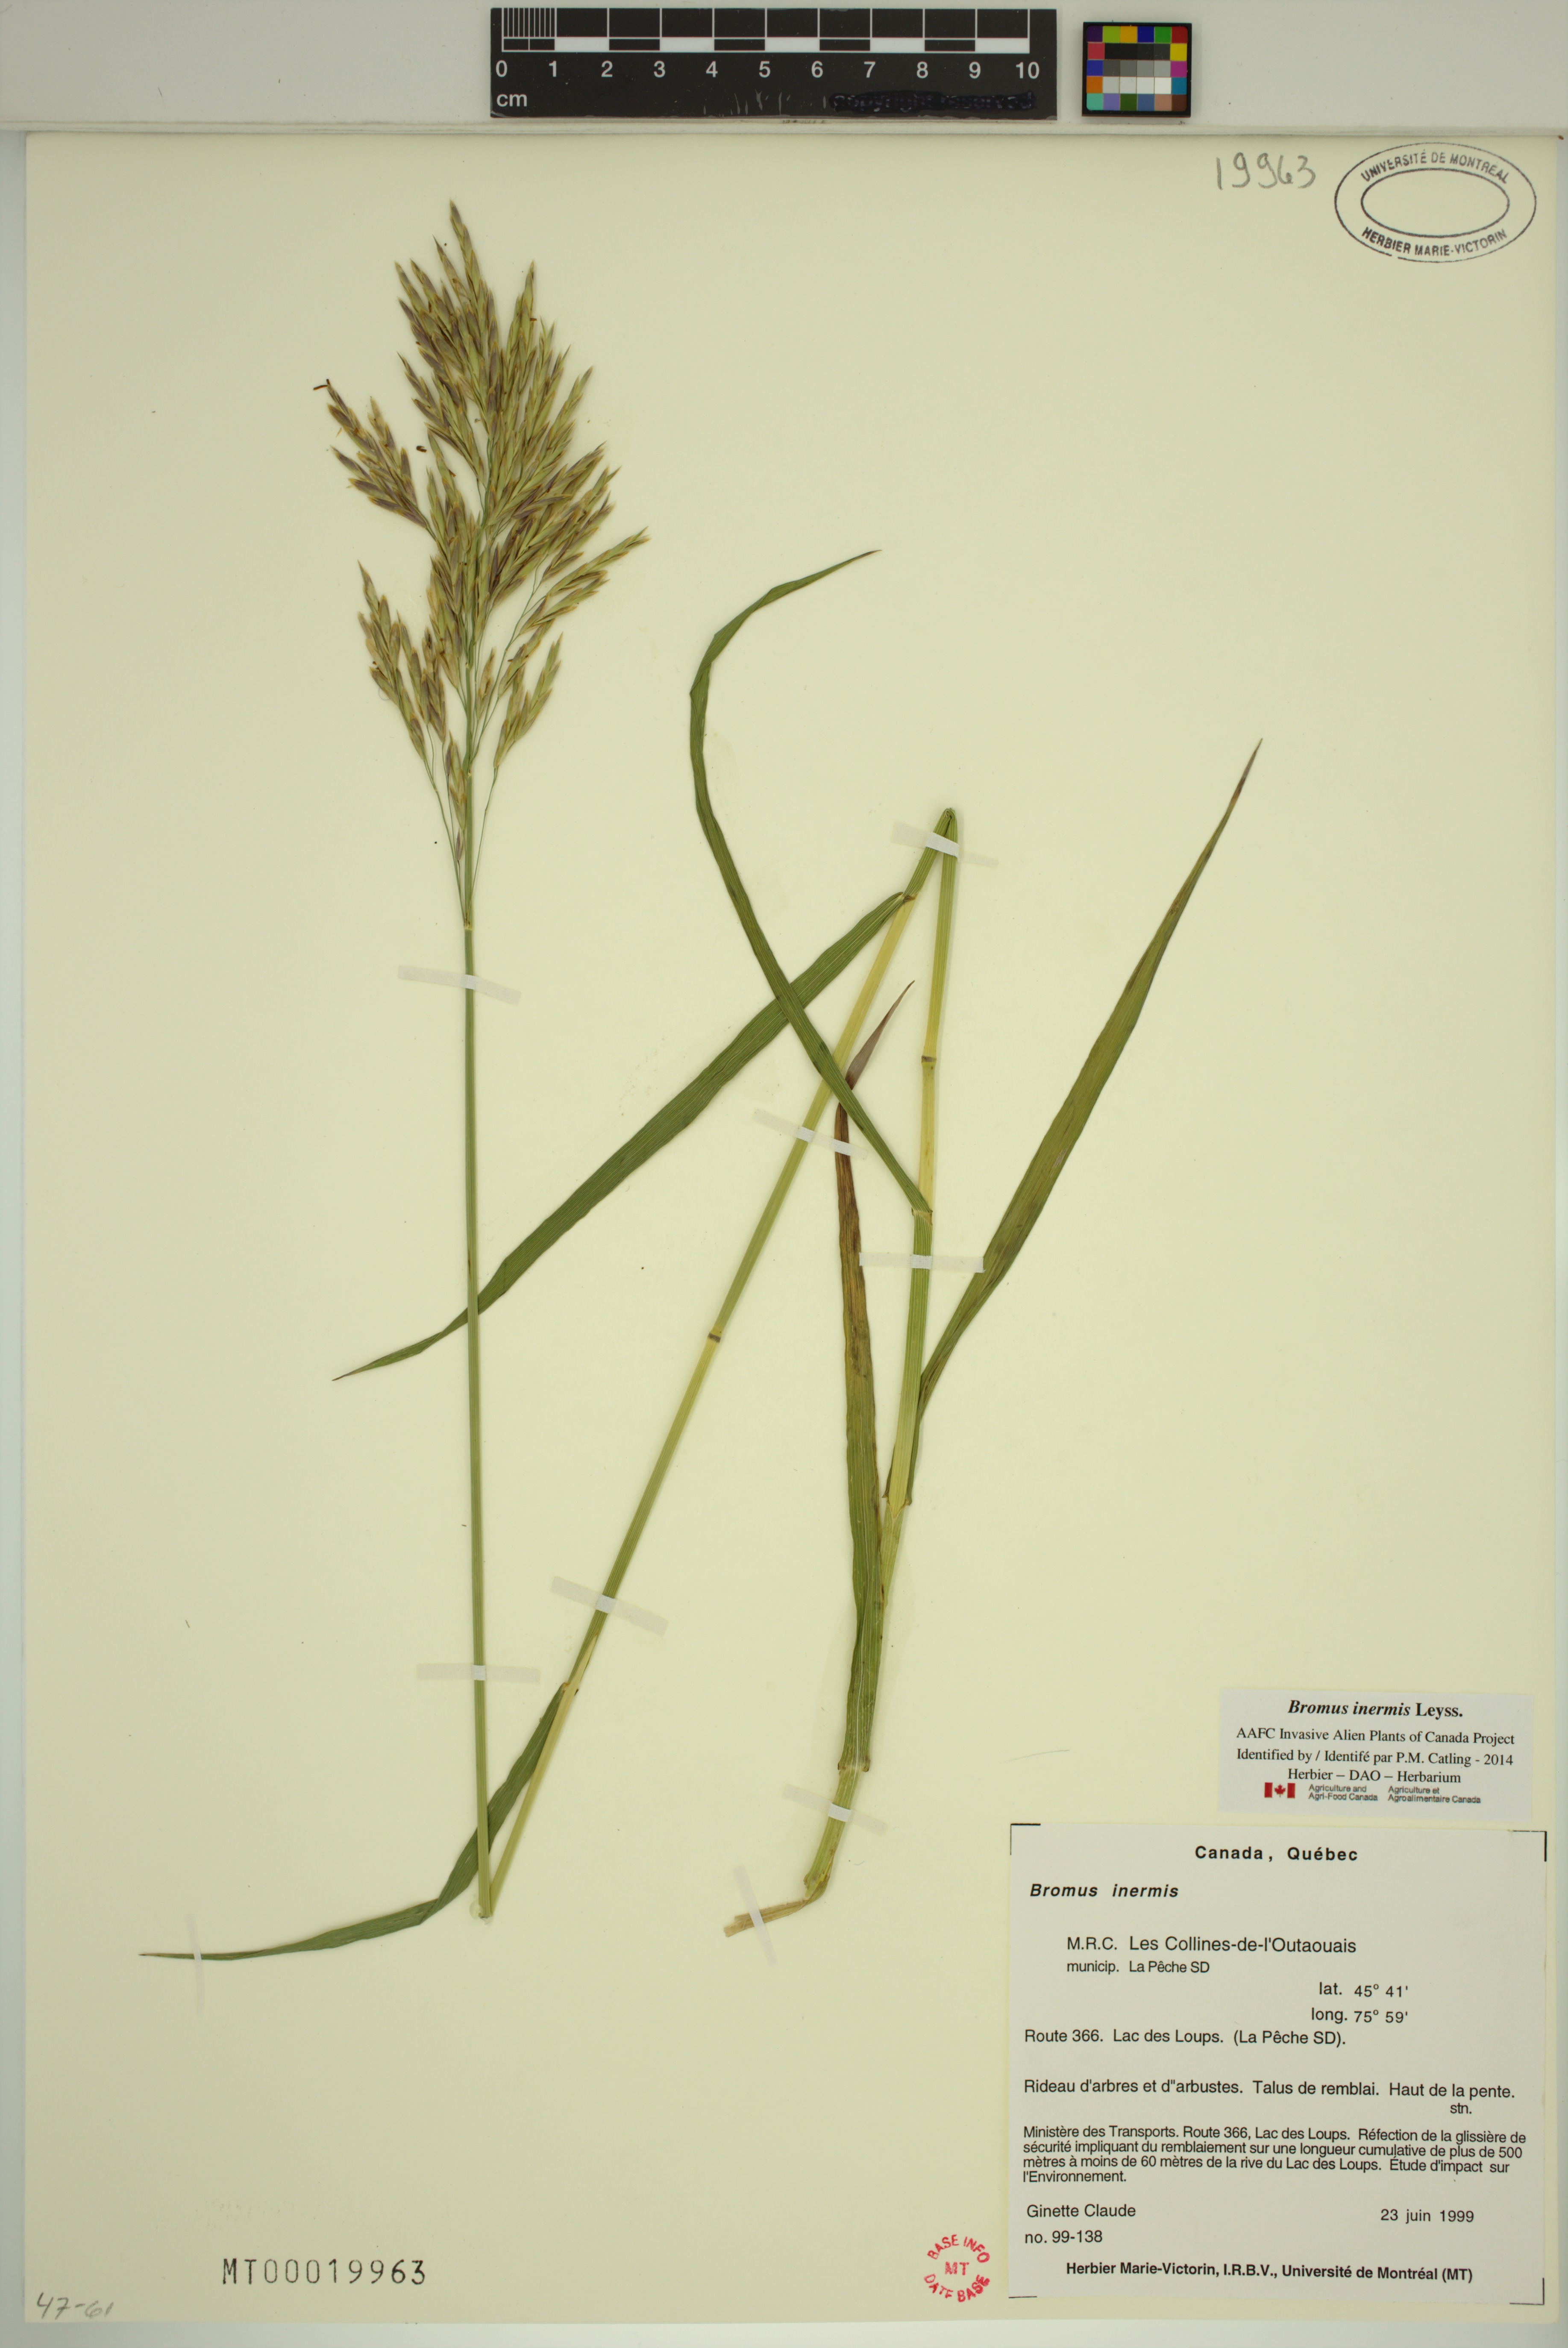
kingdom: Plantae
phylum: Tracheophyta
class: Liliopsida
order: Poales
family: Poaceae
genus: Bromus
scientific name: Bromus inermis
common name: Smooth brome
